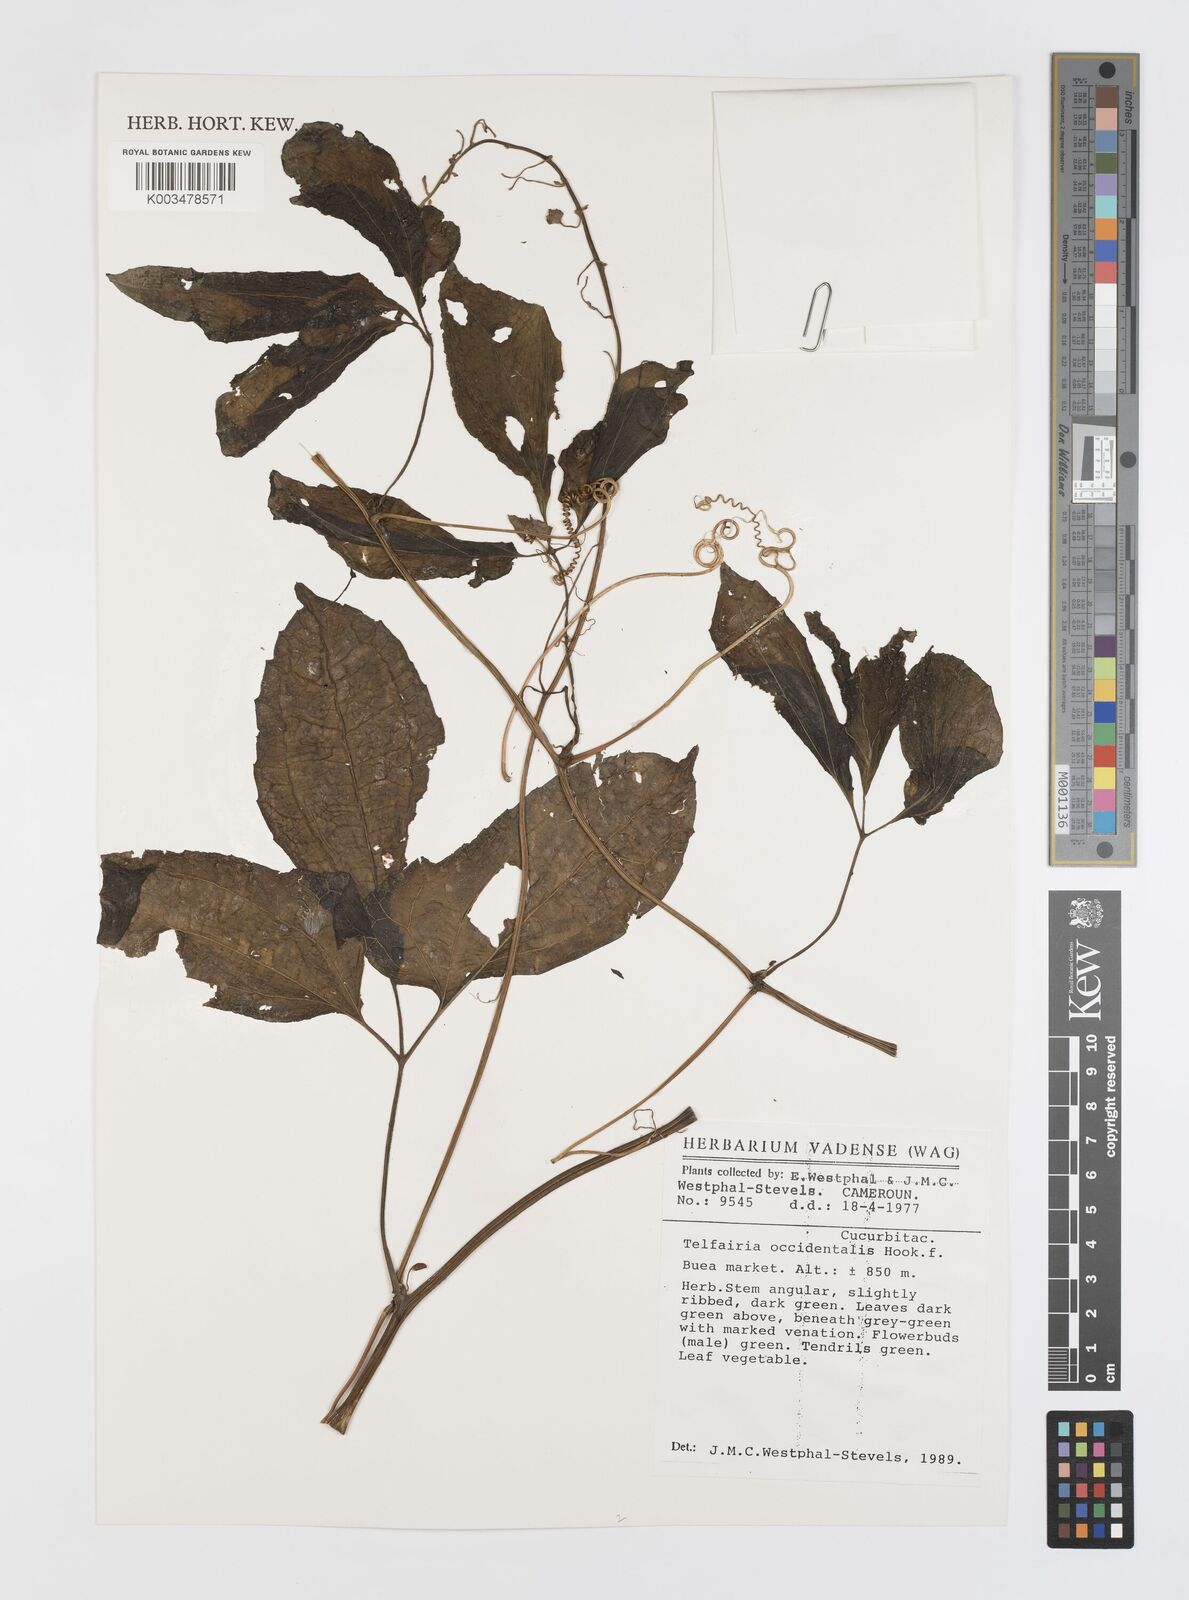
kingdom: Plantae
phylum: Tracheophyta
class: Magnoliopsida
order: Cucurbitales
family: Cucurbitaceae
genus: Telfairia
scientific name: Telfairia occidentalis
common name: Oysternut
